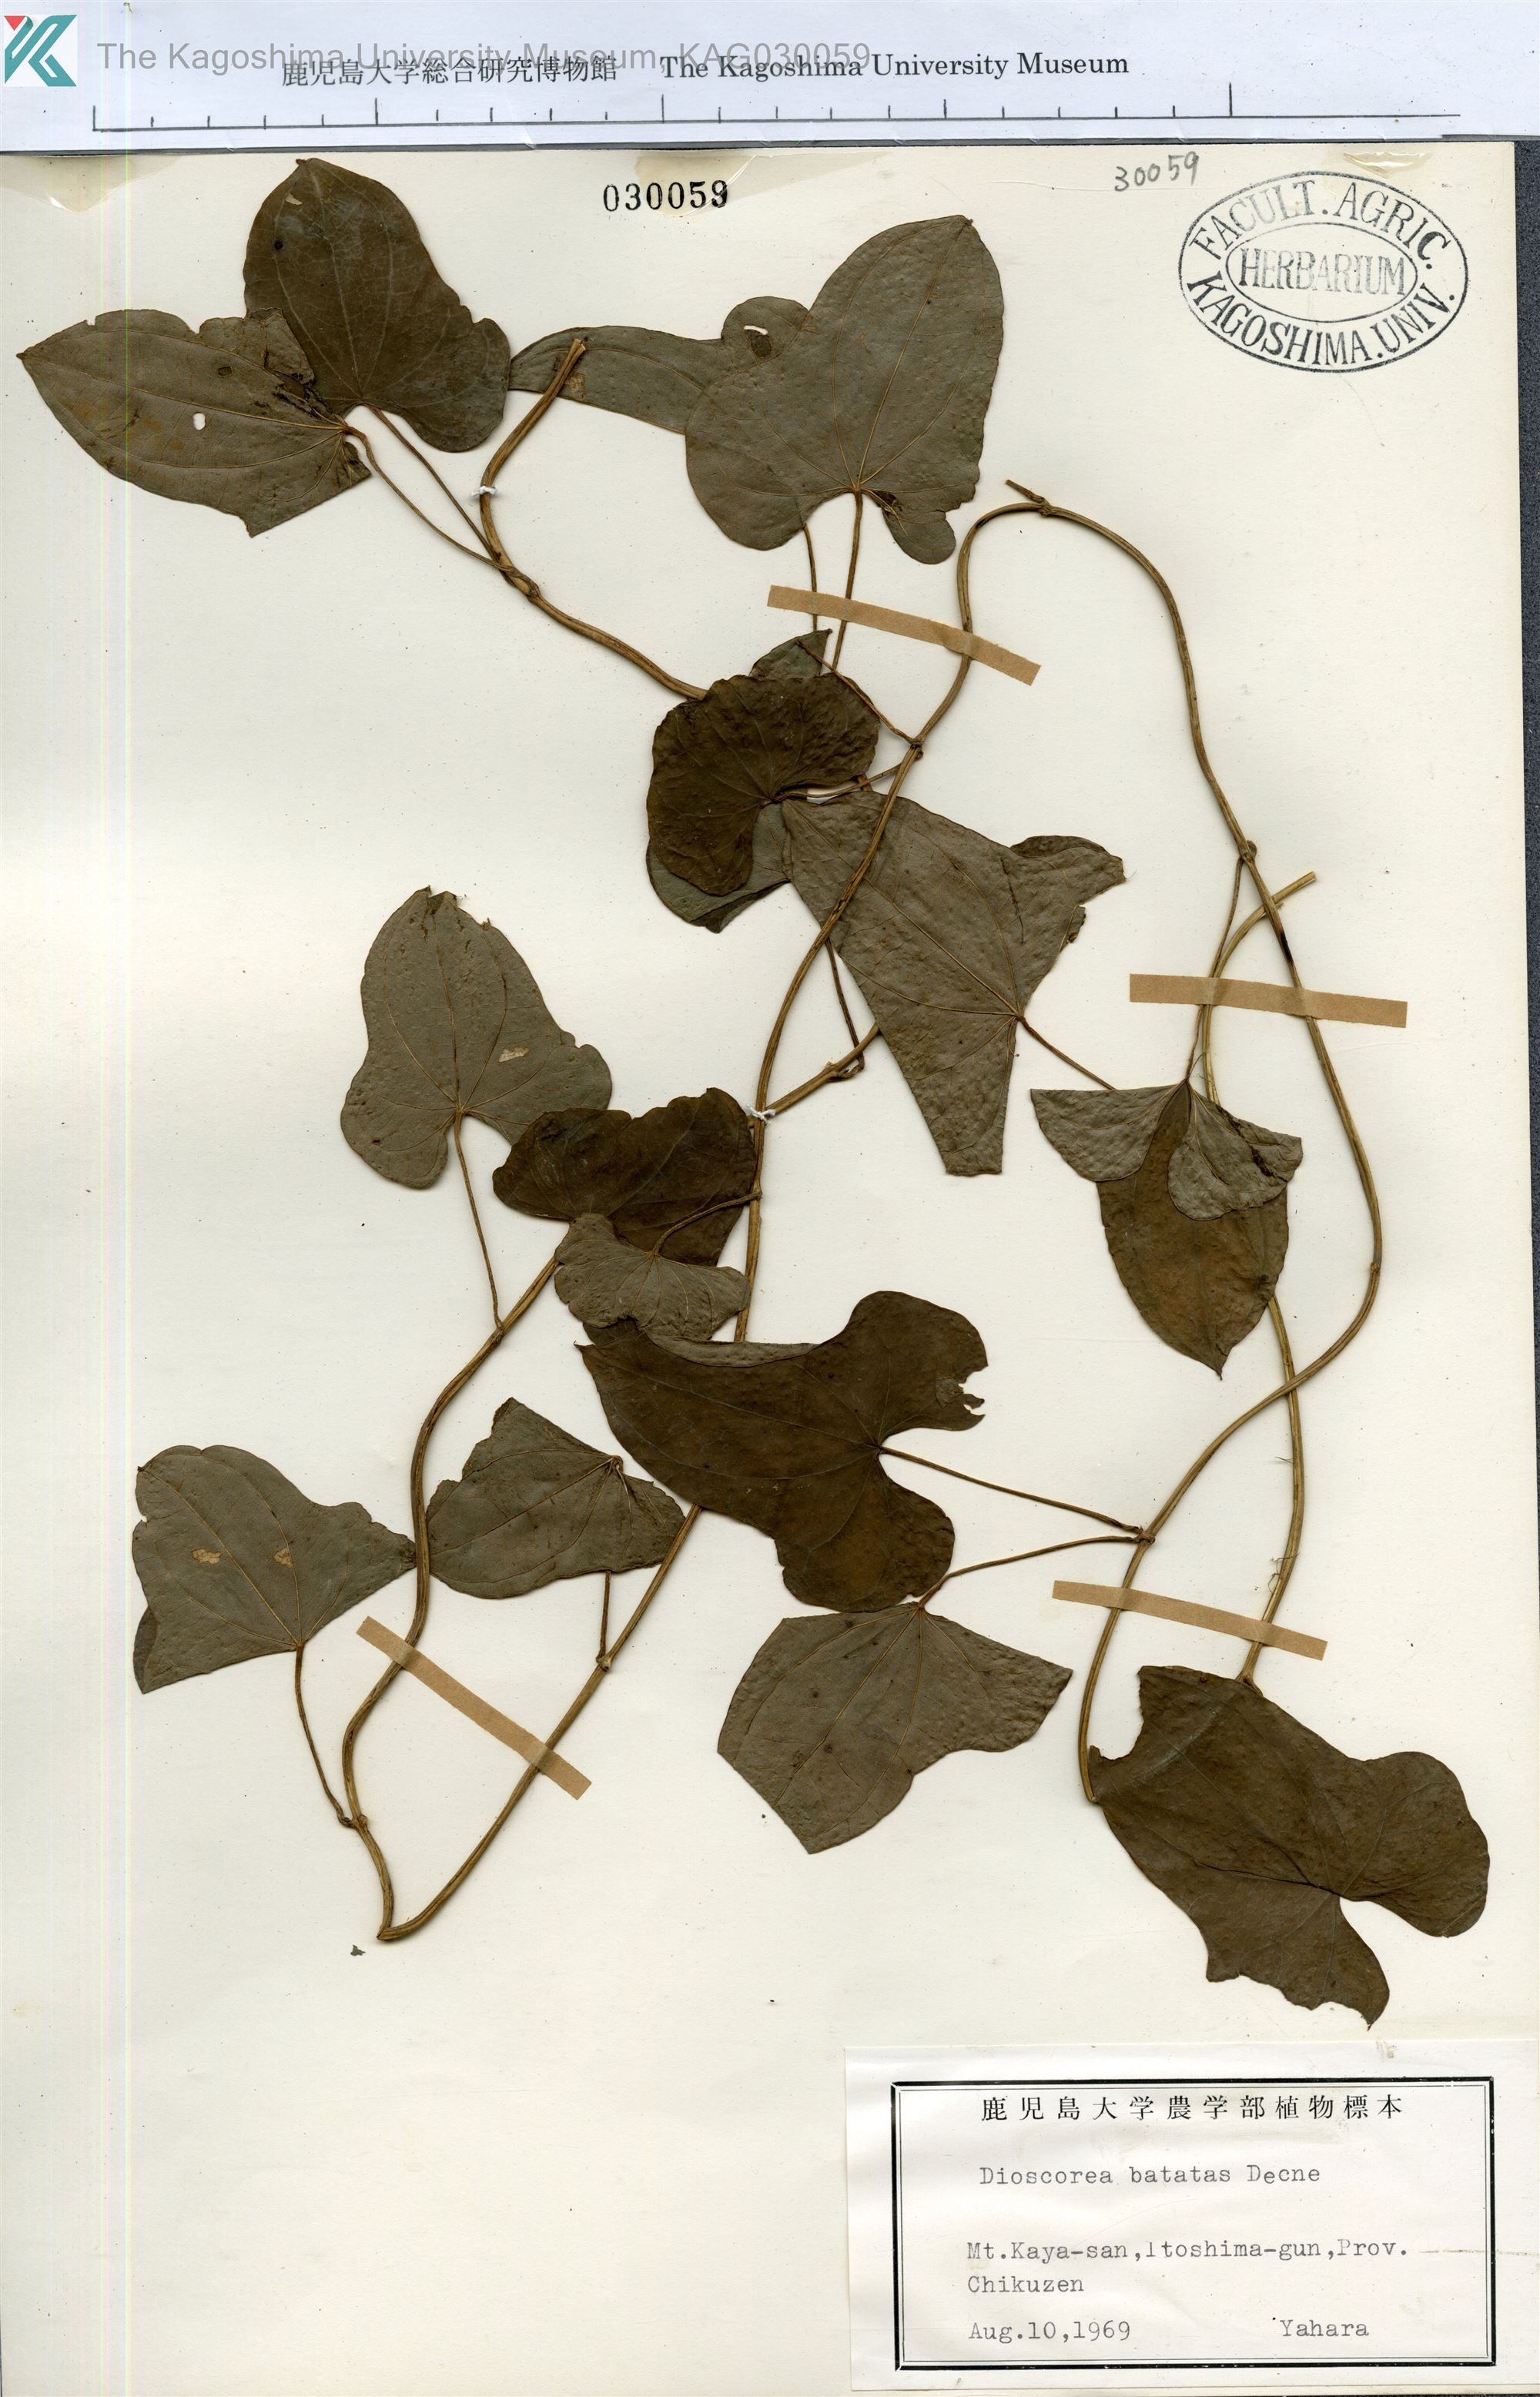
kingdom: Plantae
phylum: Tracheophyta
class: Liliopsida
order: Dioscoreales
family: Dioscoreaceae
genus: Dioscorea
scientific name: Dioscorea polystachya
